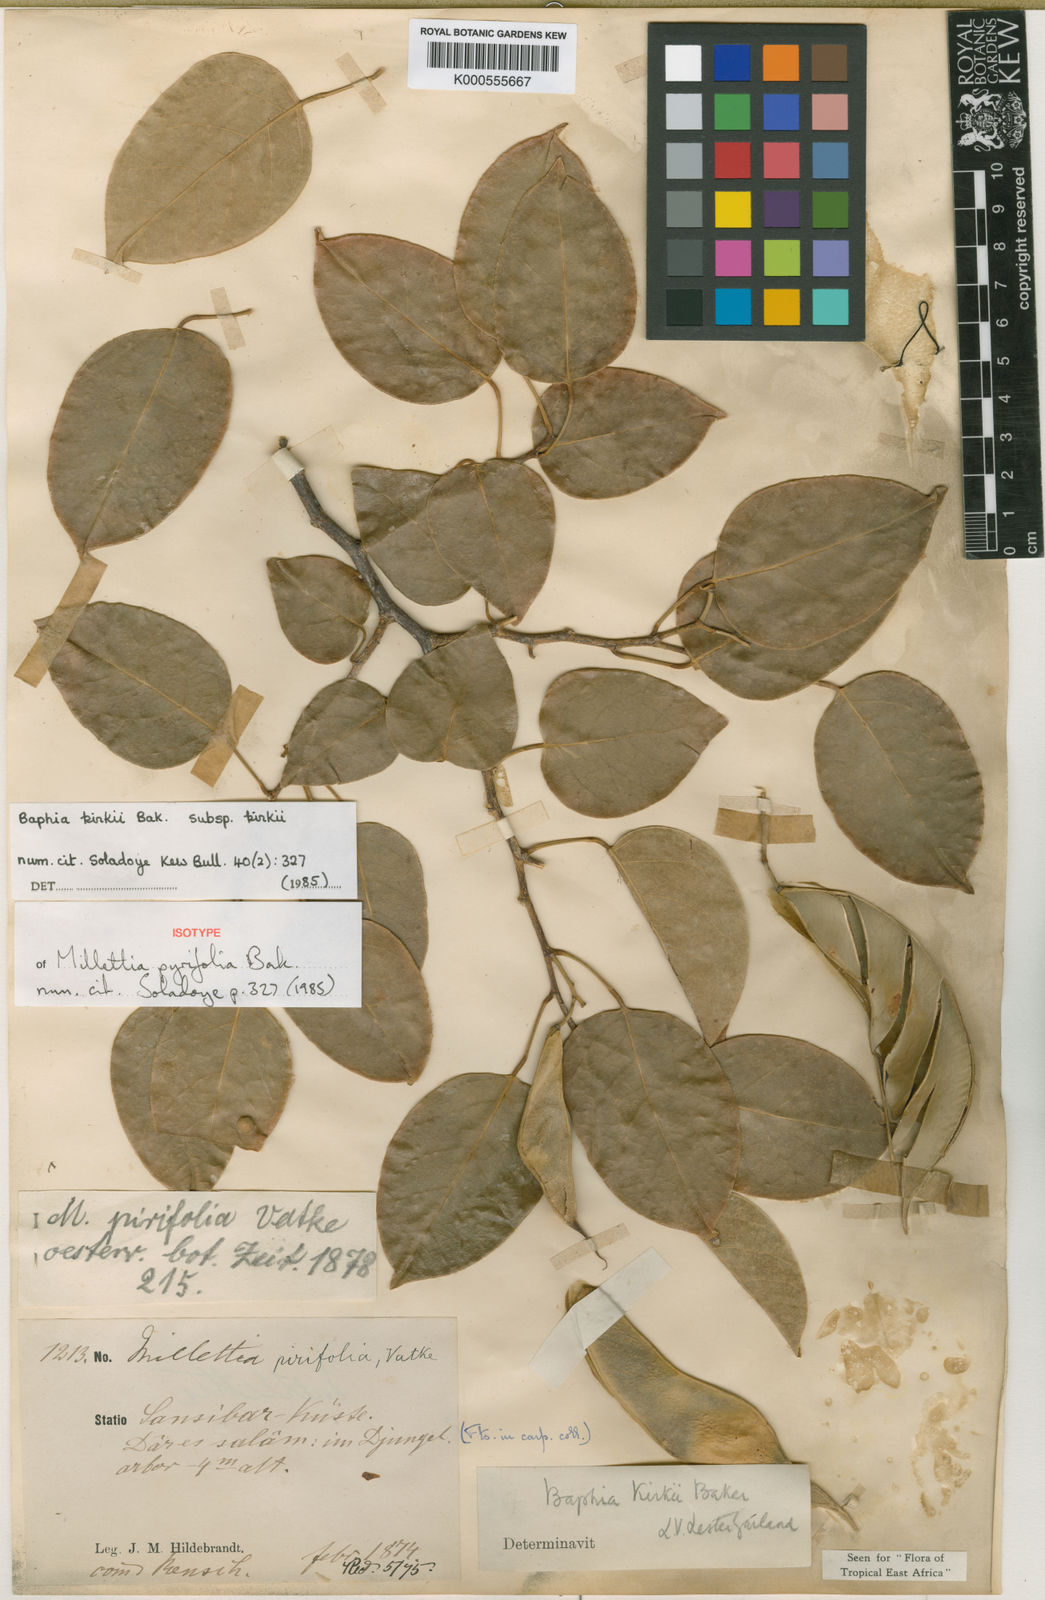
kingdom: Plantae
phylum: Tracheophyta
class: Magnoliopsida
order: Fabales
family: Fabaceae
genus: Baphia
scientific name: Baphia kirkii
